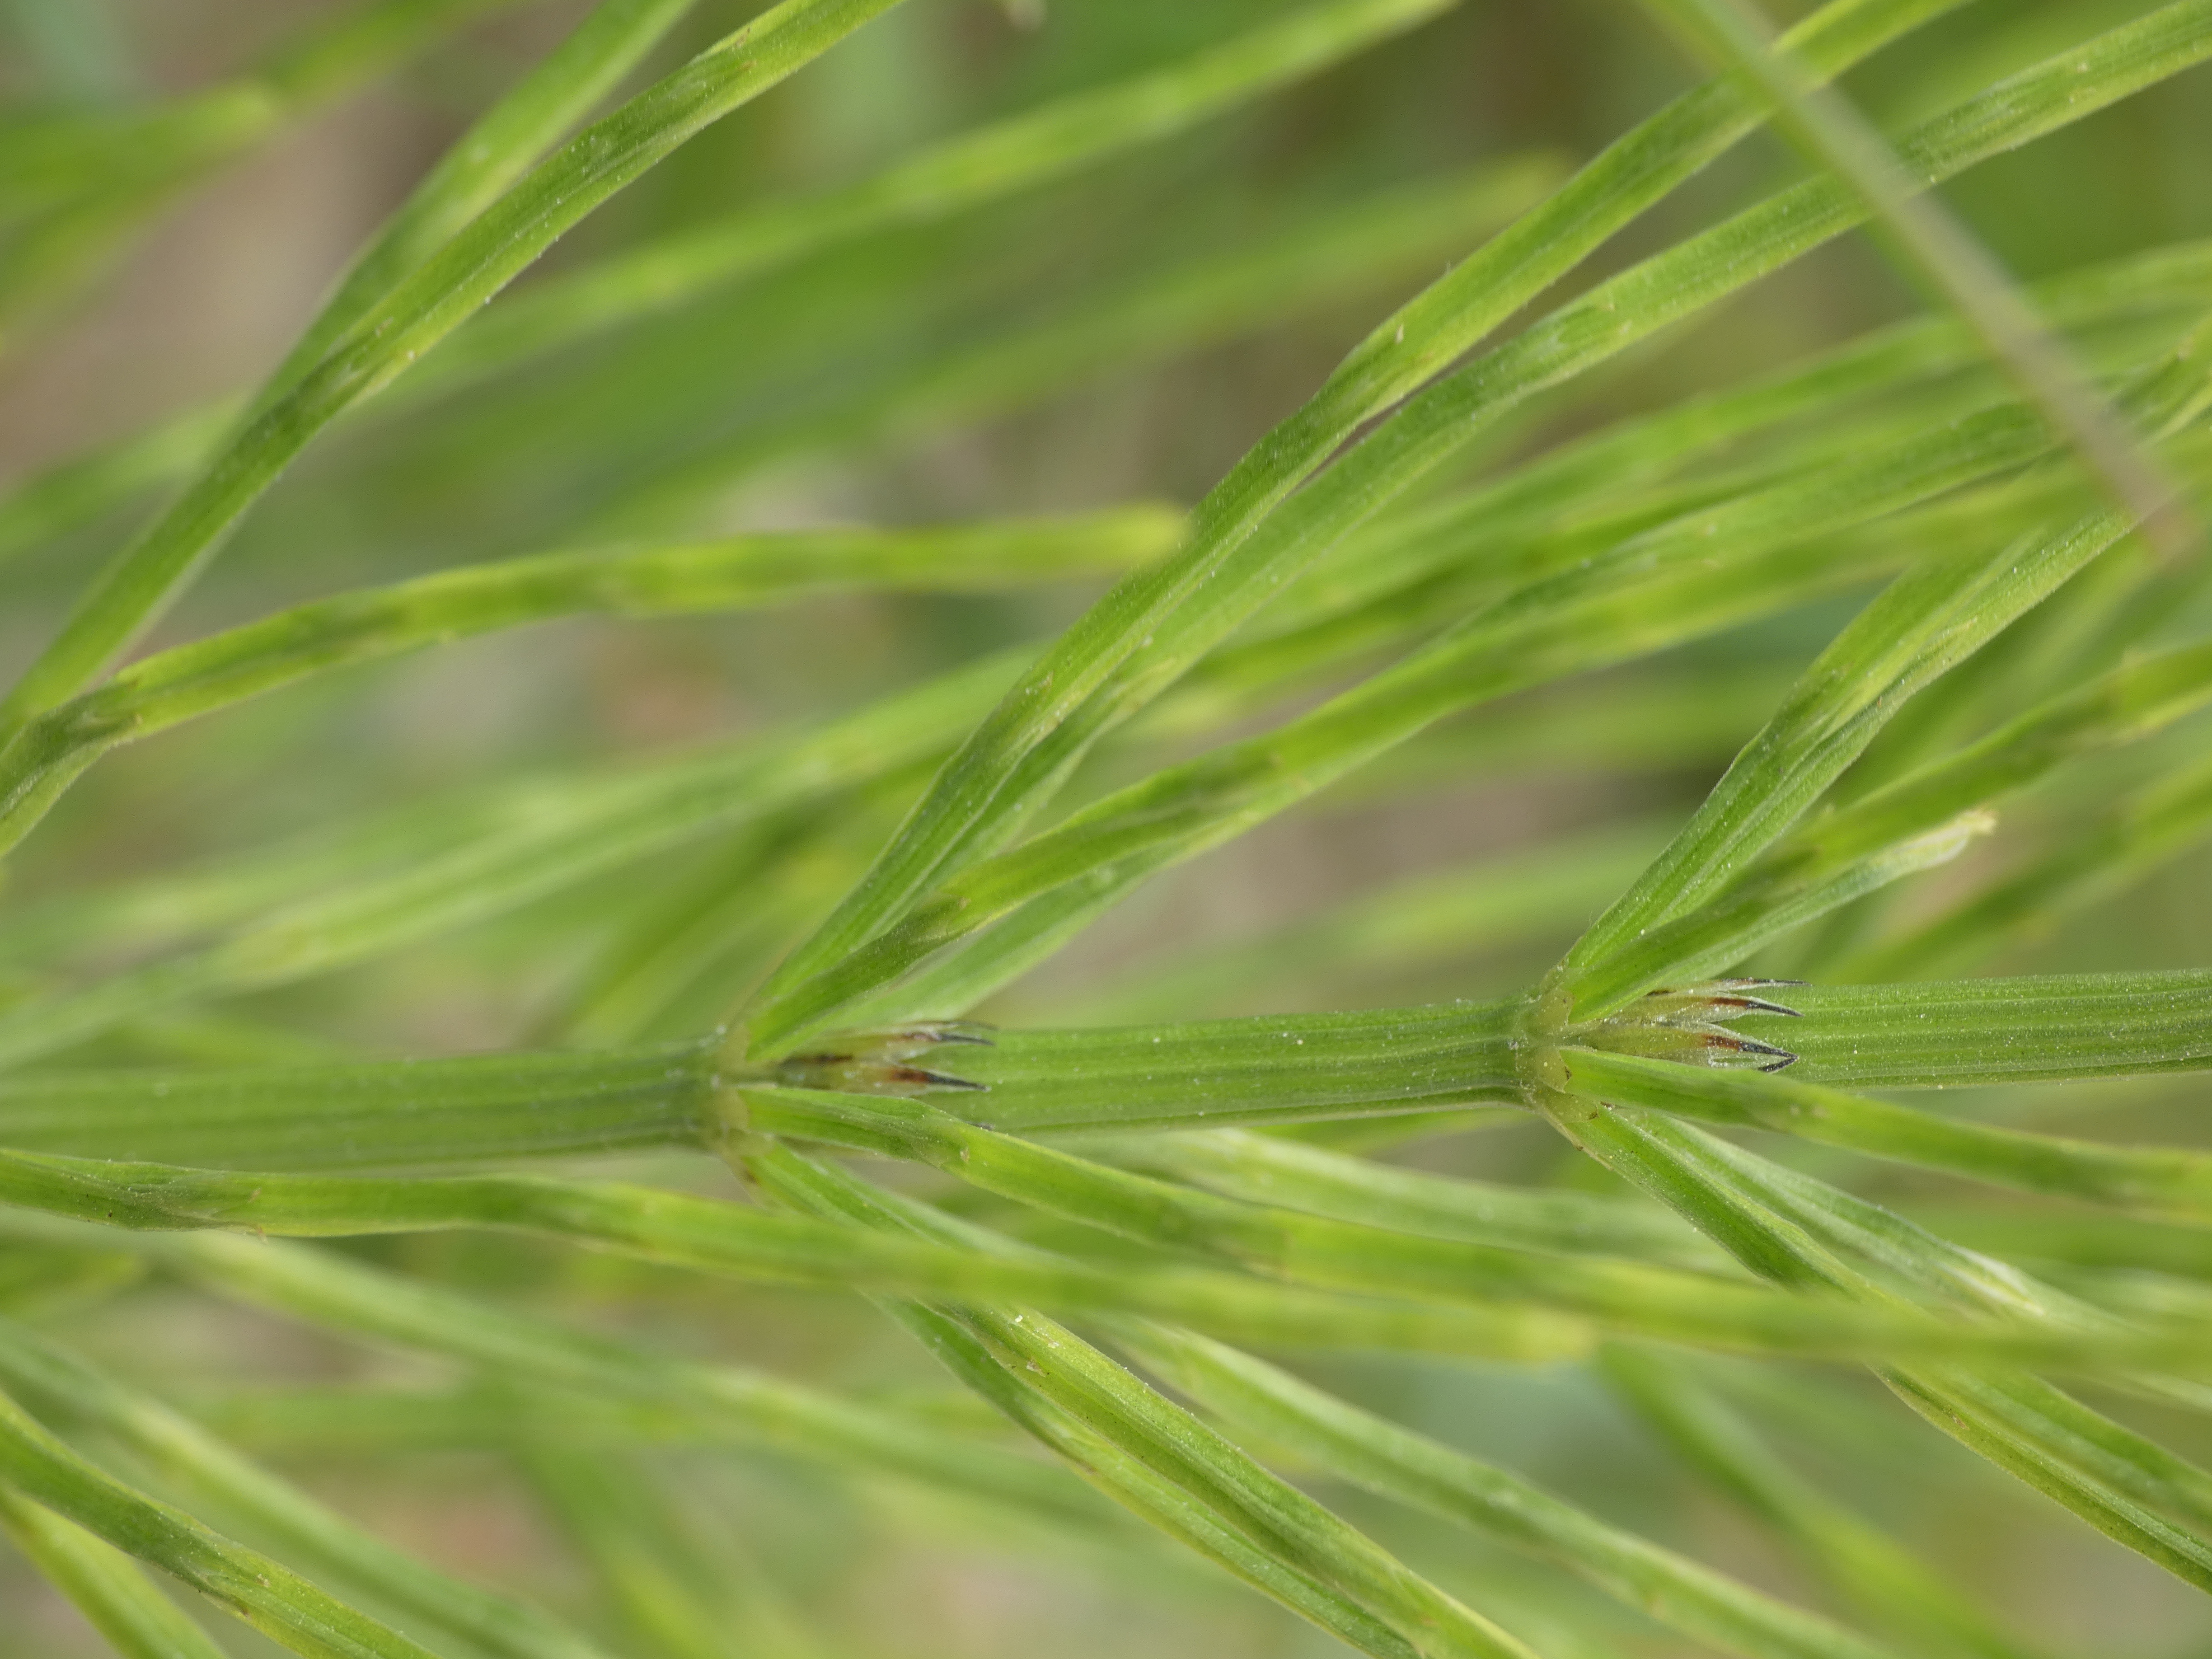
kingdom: Plantae
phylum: Tracheophyta
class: Polypodiopsida
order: Equisetales
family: Equisetaceae
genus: Equisetum
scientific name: Equisetum arvense
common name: Ager-padderok
